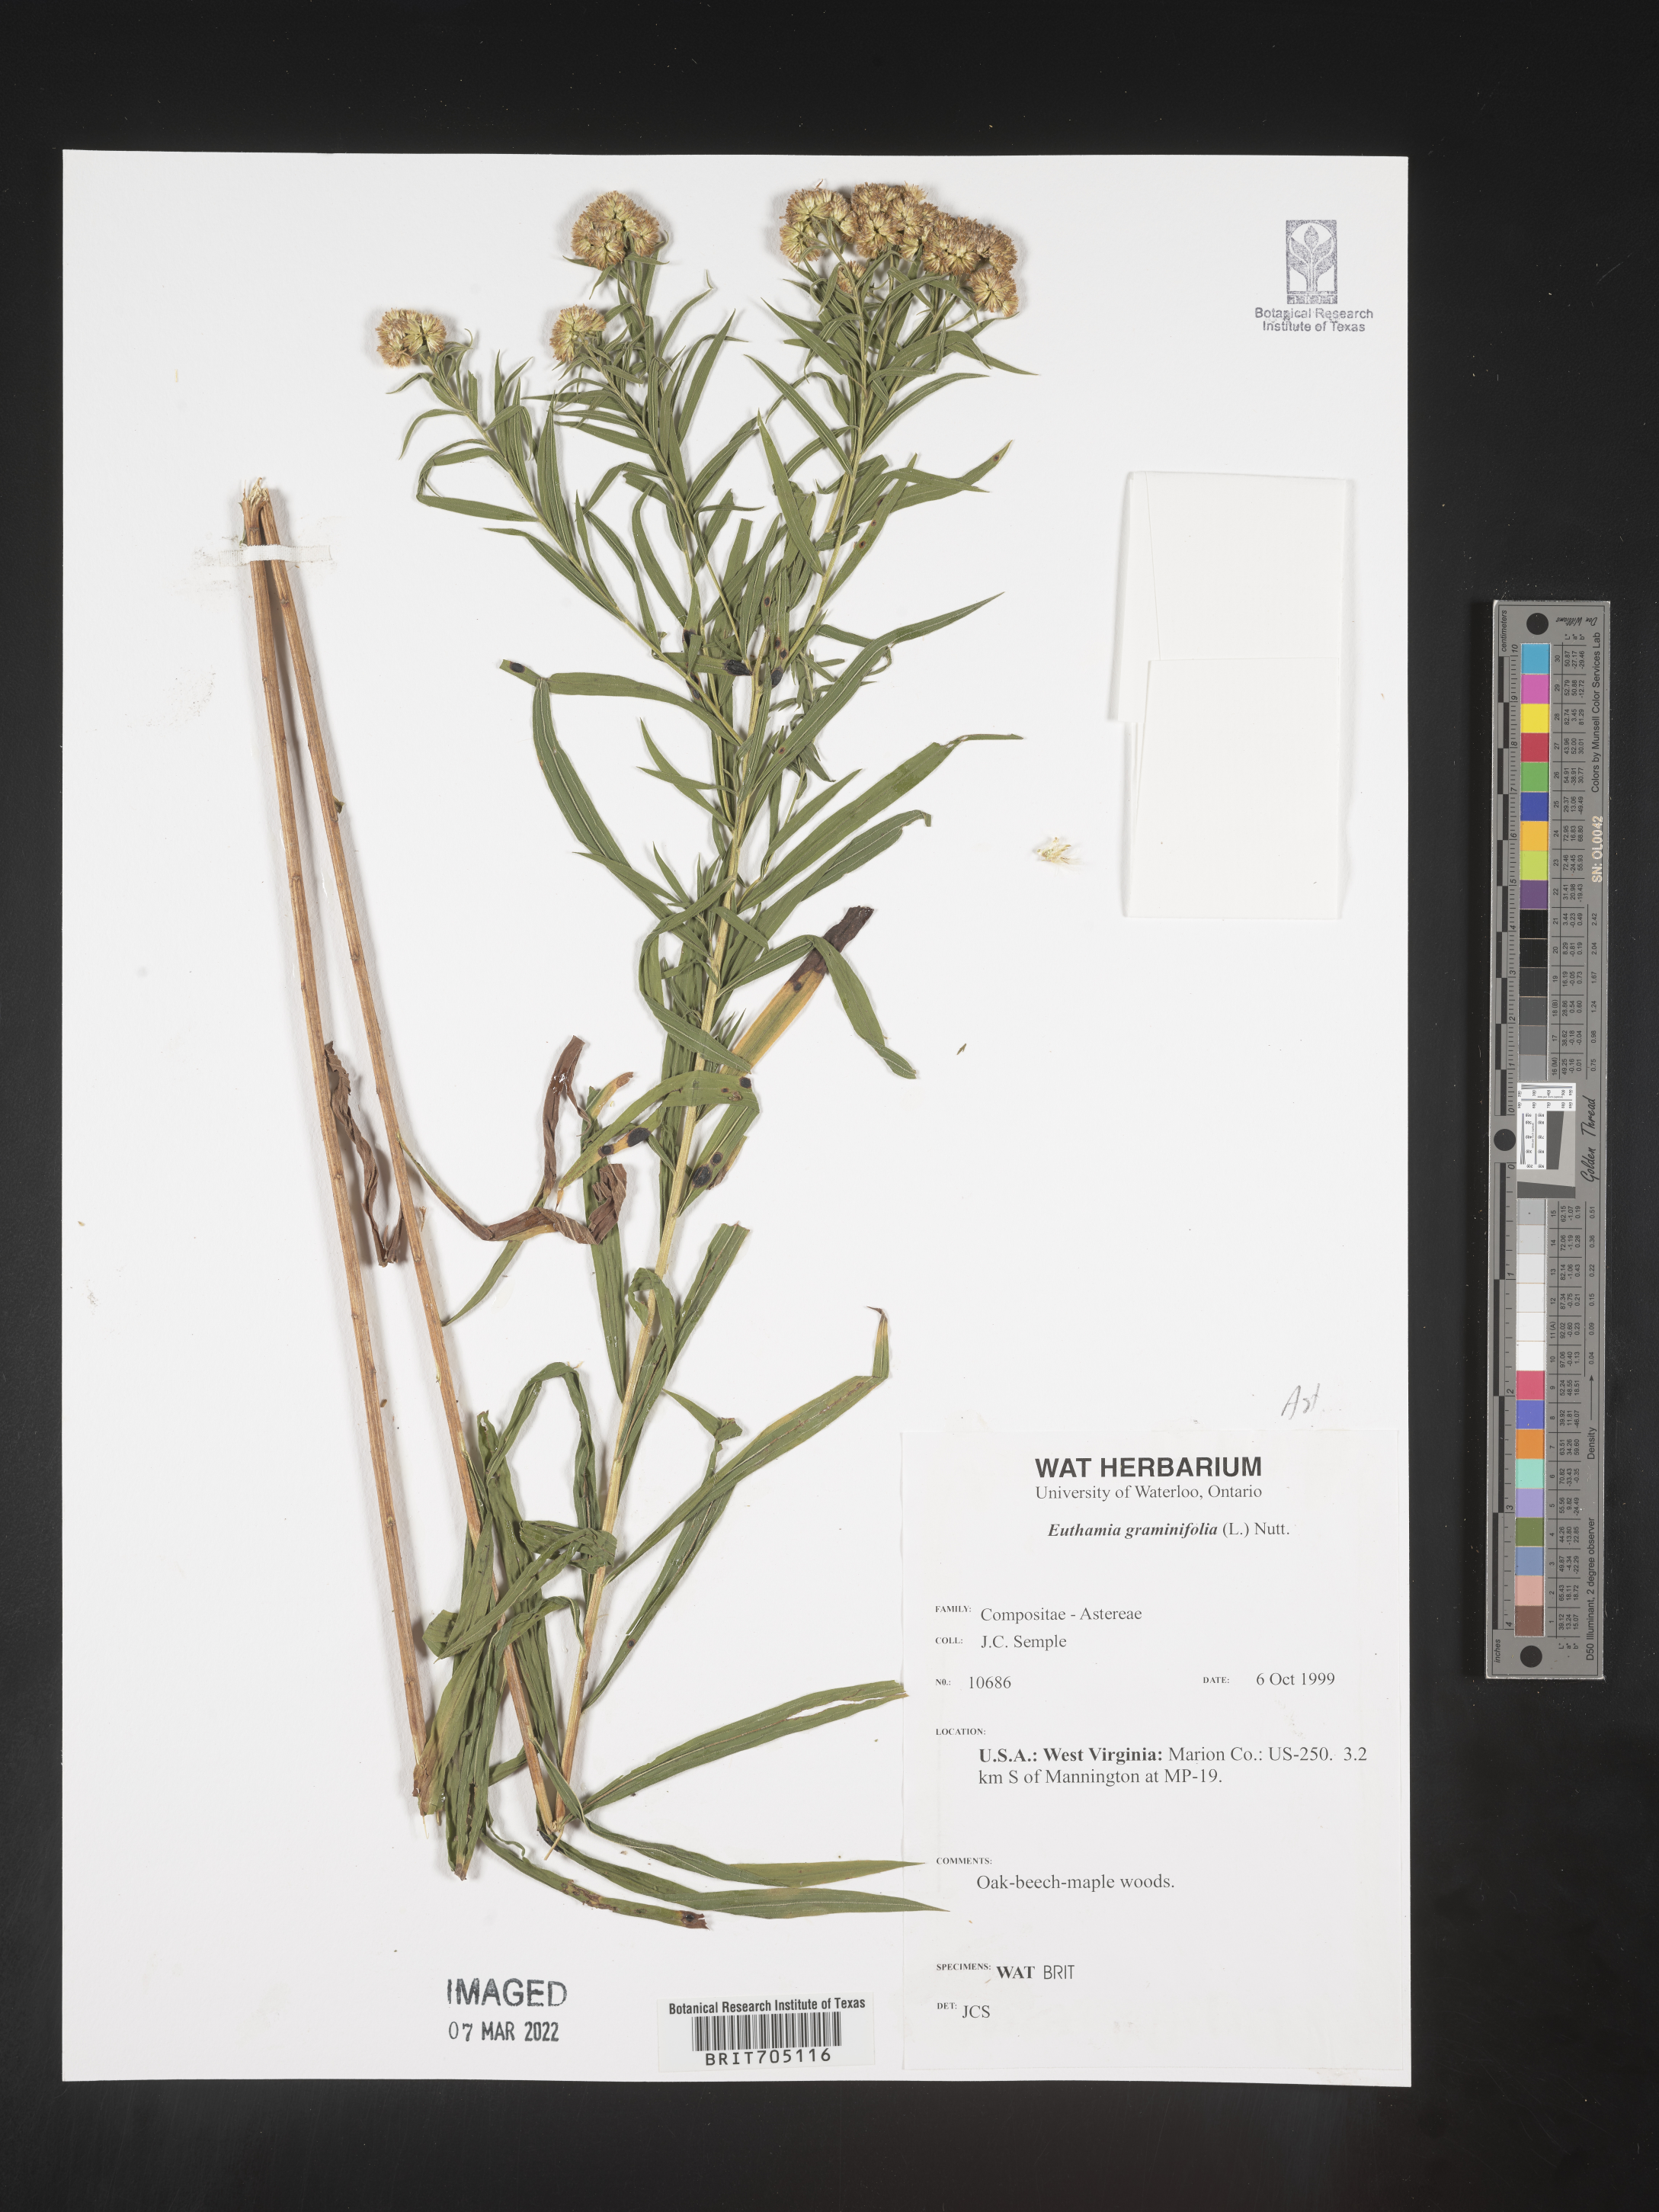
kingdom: Plantae
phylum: Tracheophyta
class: Magnoliopsida
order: Asterales
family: Asteraceae
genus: Euthamia
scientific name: Euthamia graminifolia
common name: Common goldentop
